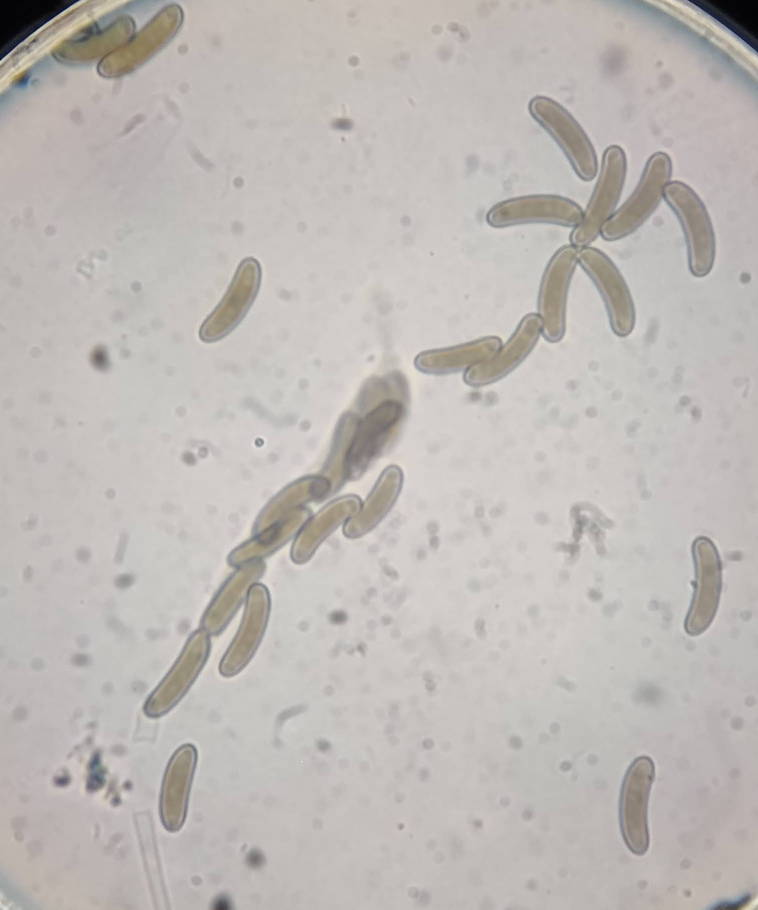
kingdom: Fungi
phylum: Ascomycota
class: Sordariomycetes
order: Xylariales
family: Diatrypaceae
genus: Quaternaria
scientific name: Quaternaria dissepta
